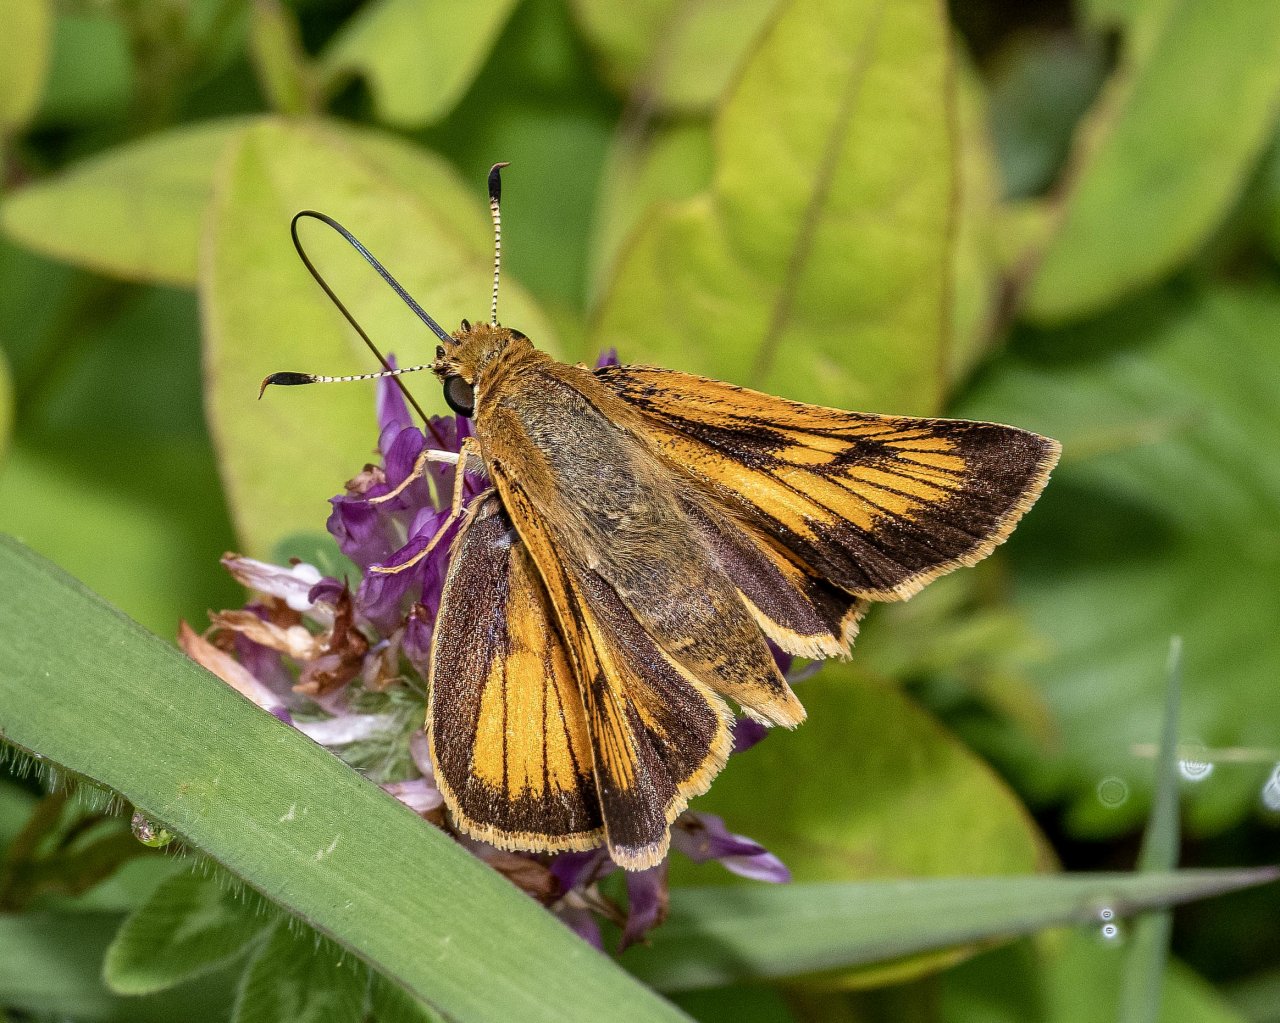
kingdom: Animalia
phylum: Arthropoda
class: Insecta
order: Lepidoptera
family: Hesperiidae
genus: Atrytone
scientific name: Atrytone delaware
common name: Delaware Skipper
